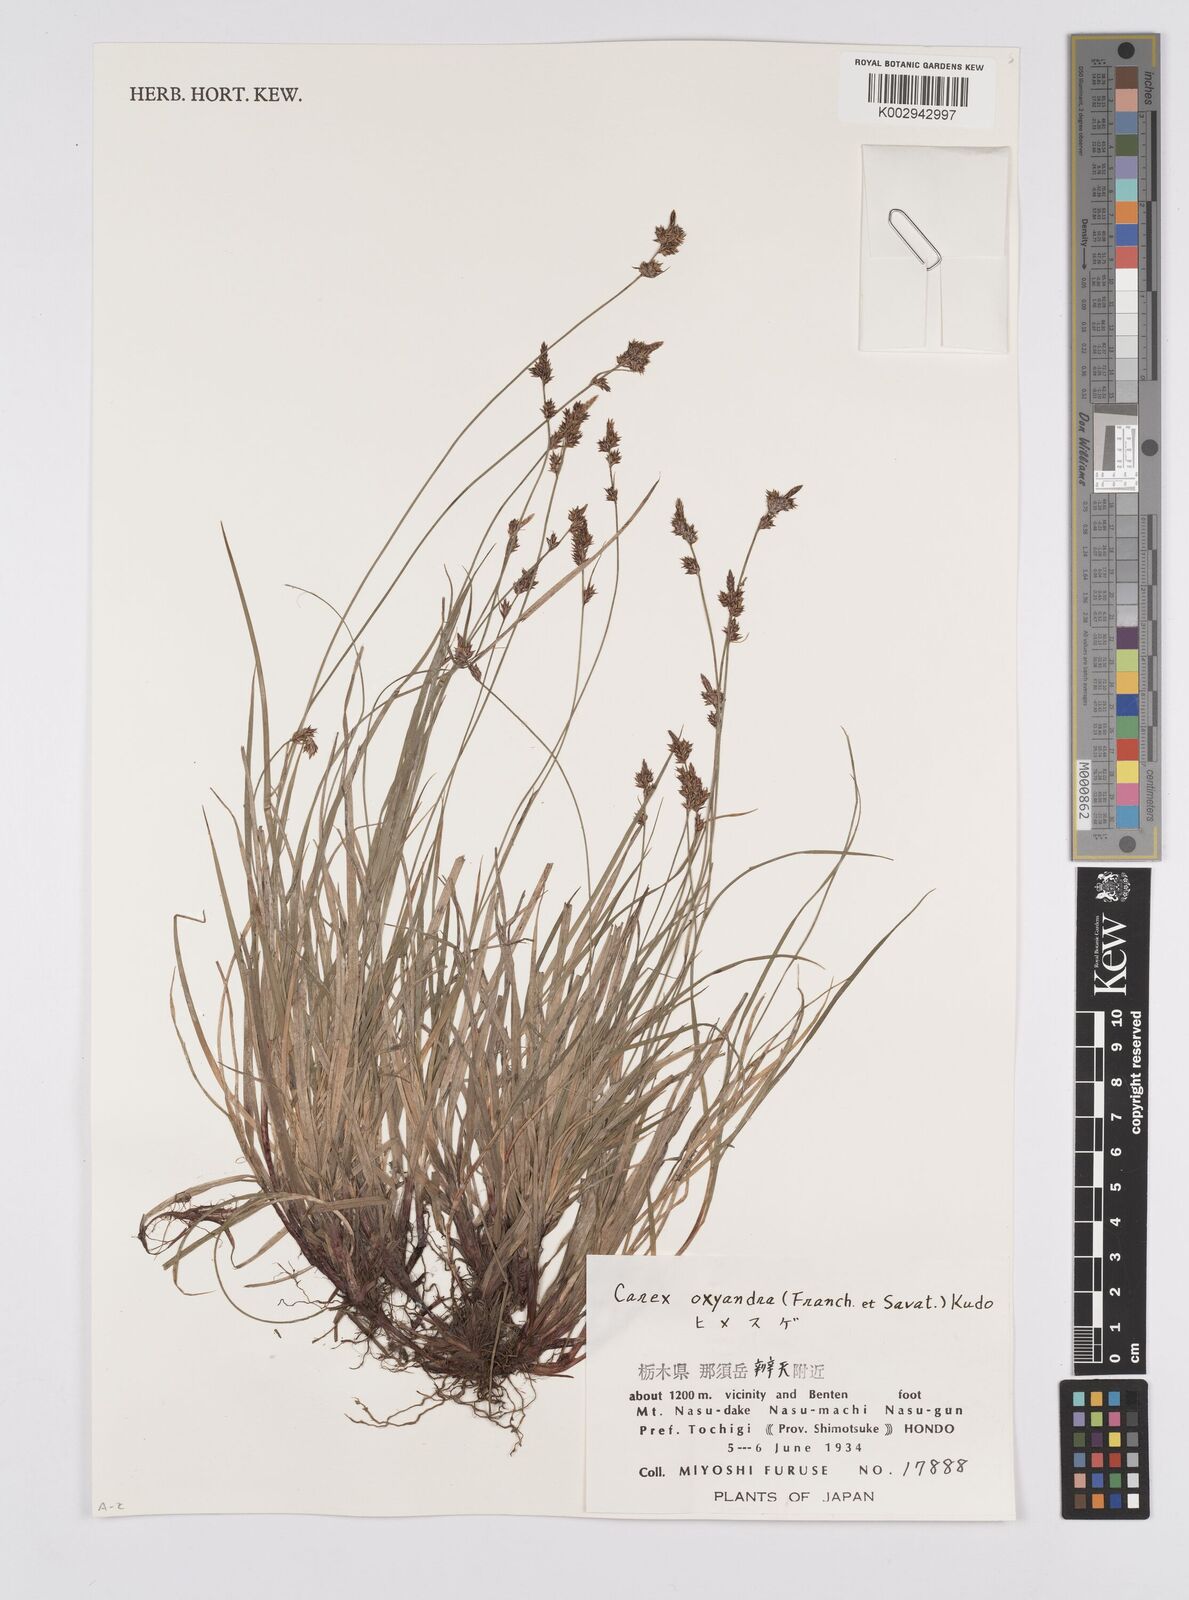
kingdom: Plantae
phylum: Tracheophyta
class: Liliopsida
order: Poales
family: Cyperaceae
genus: Carex
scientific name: Carex oxyandra
